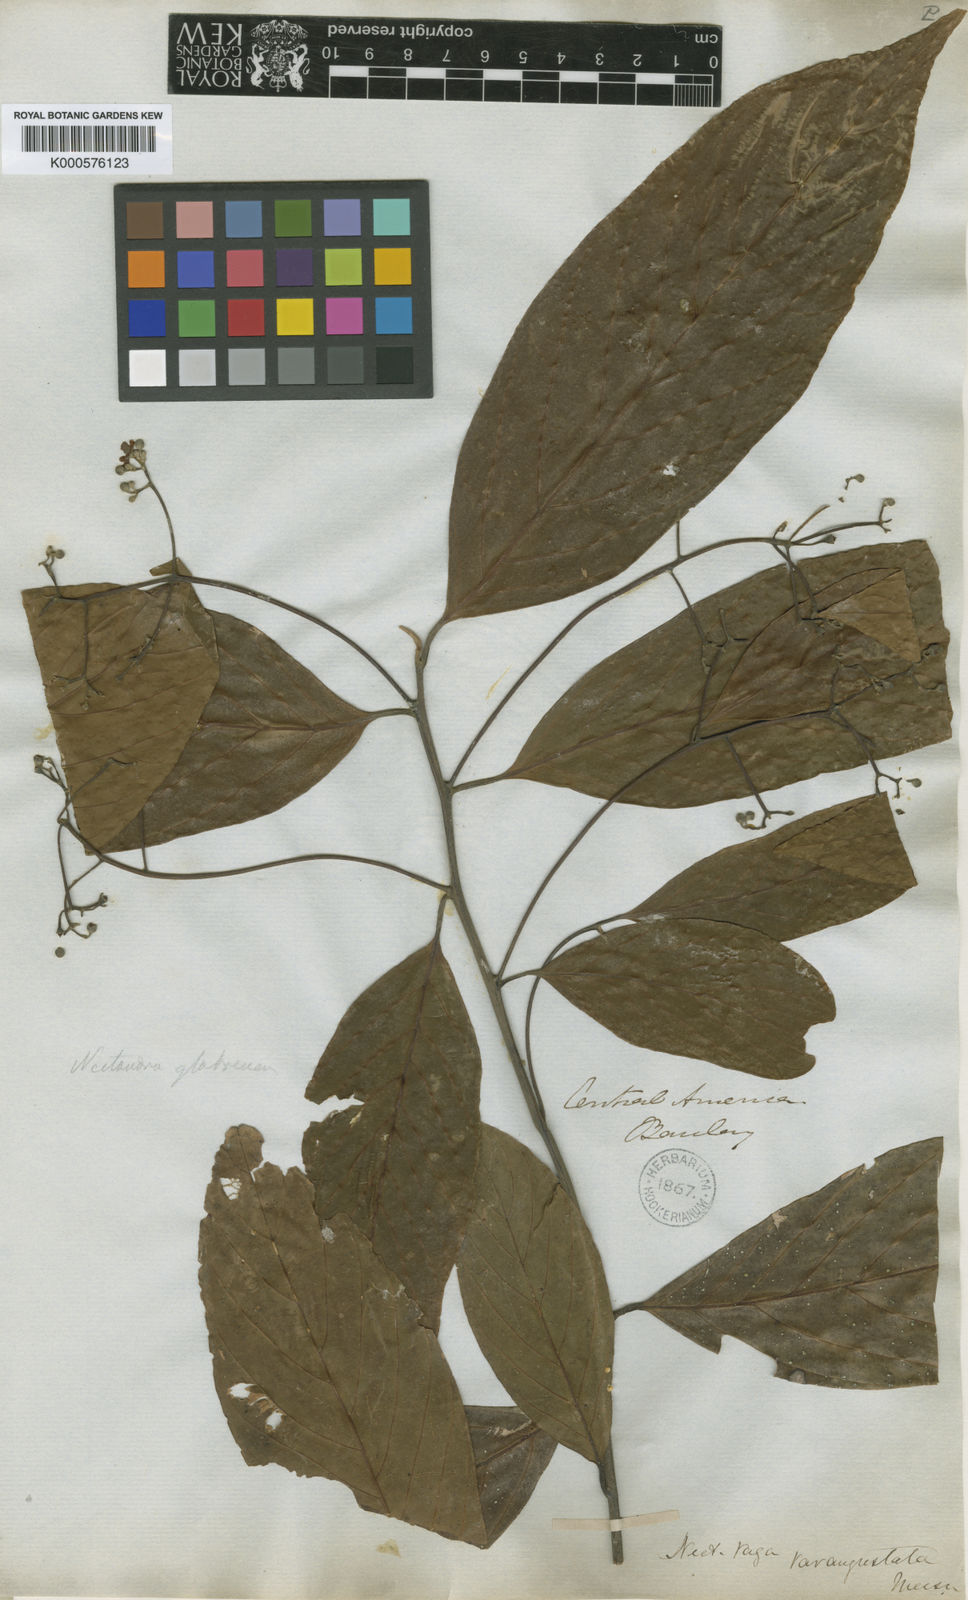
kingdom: Plantae
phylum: Tracheophyta
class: Magnoliopsida
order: Laurales
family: Lauraceae
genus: Nectandra
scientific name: Nectandra globosa
